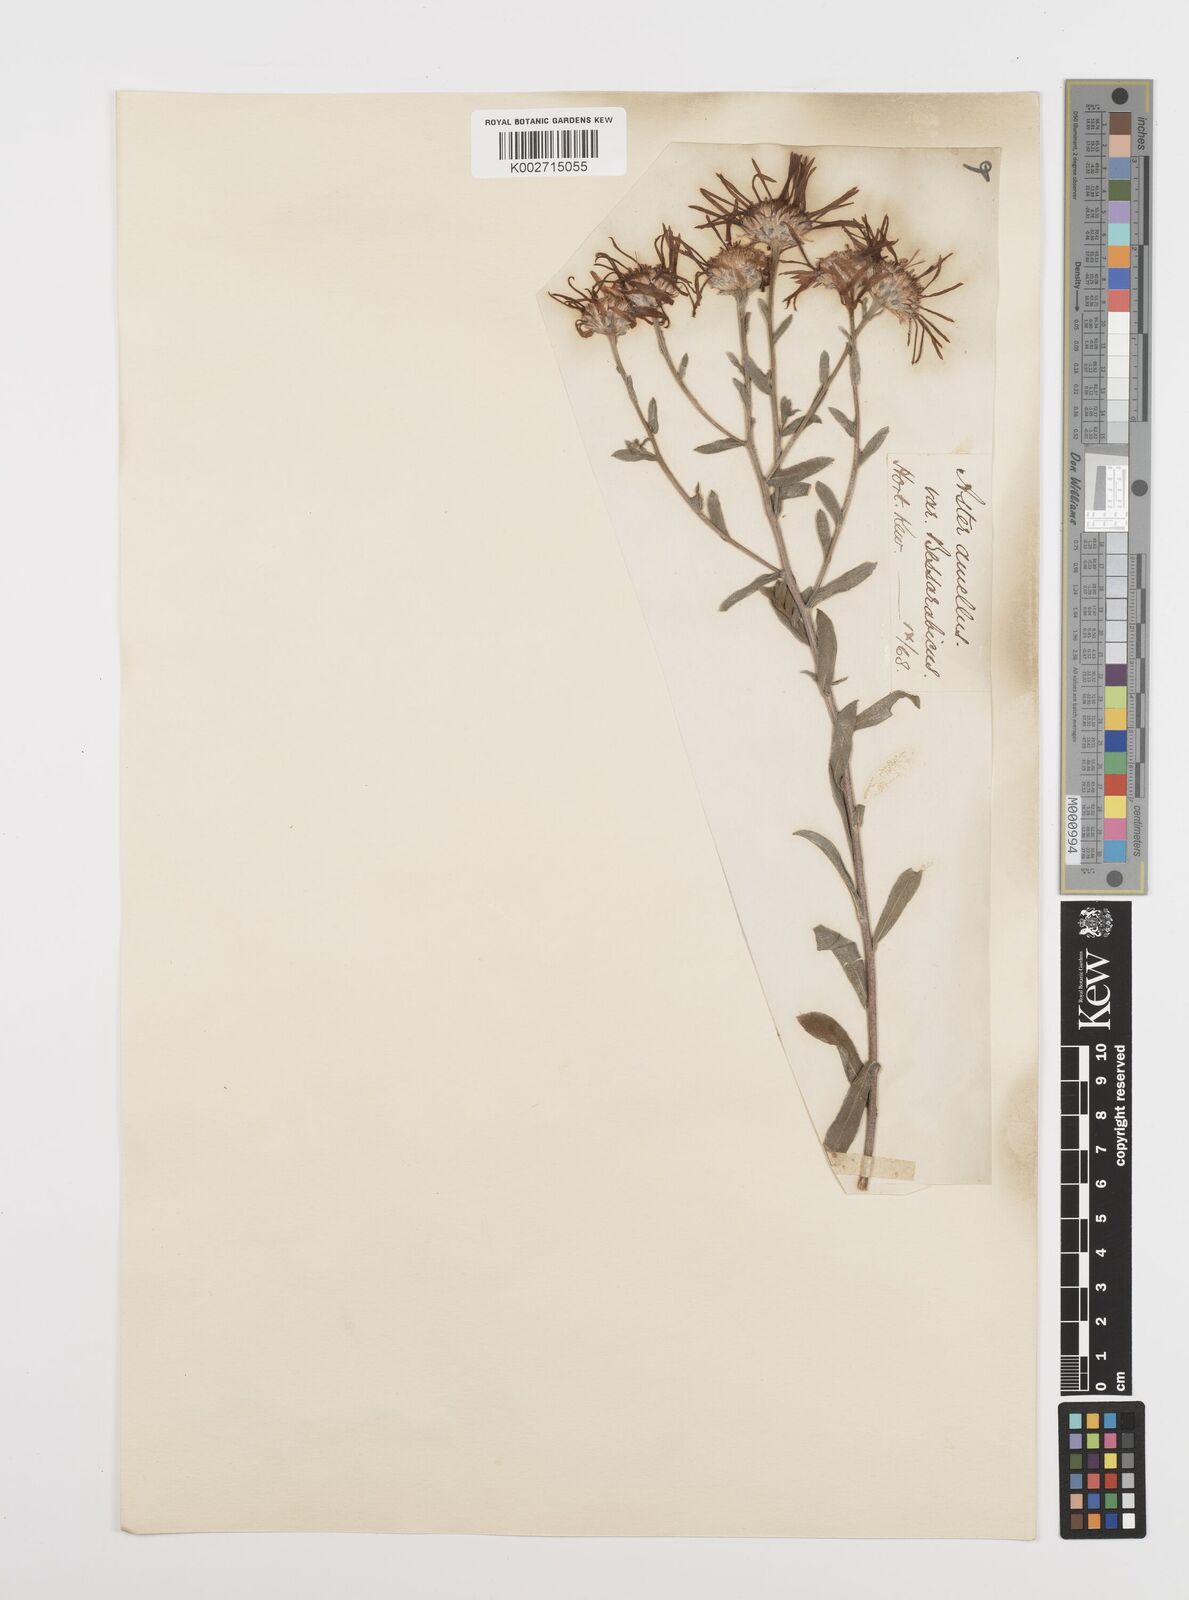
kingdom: Plantae
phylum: Tracheophyta
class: Magnoliopsida
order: Asterales
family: Asteraceae
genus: Aster
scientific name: Aster amellus
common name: European michaelmas daisy
